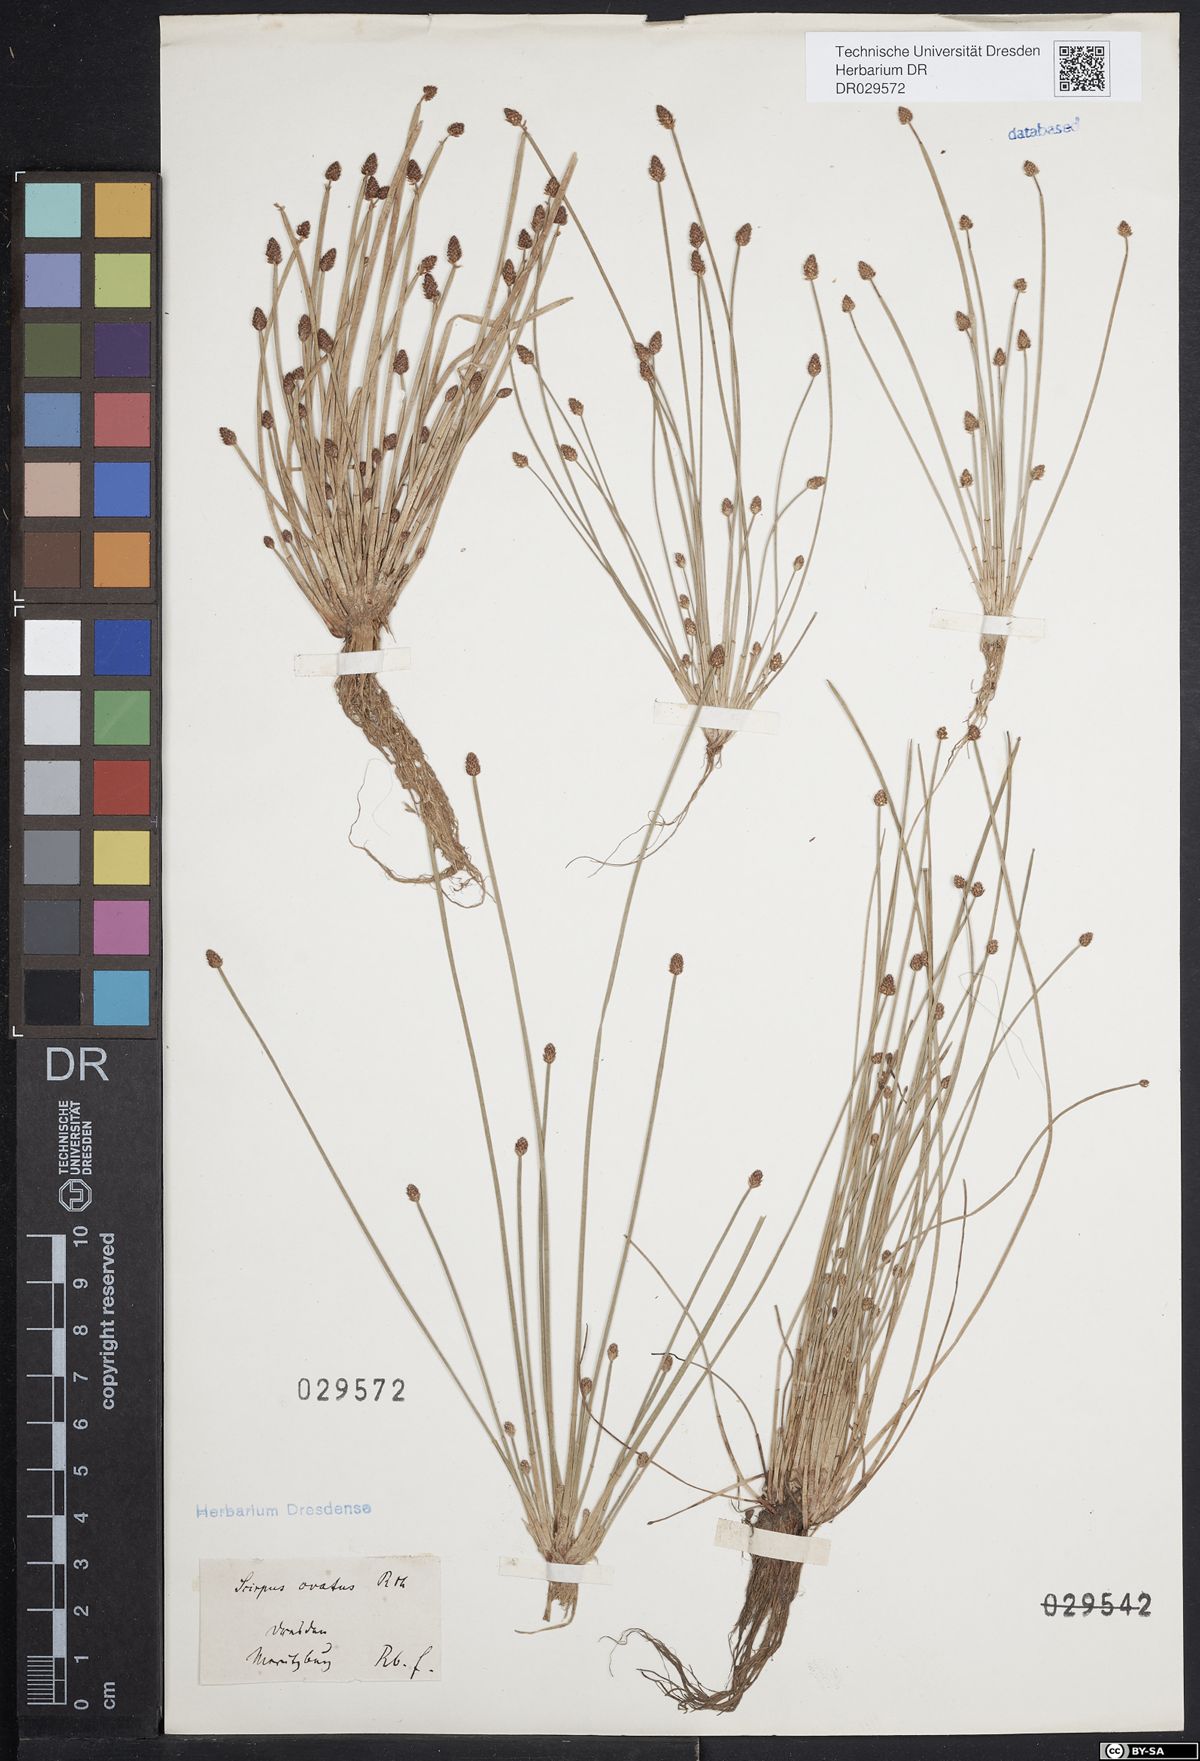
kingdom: Plantae
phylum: Tracheophyta
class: Liliopsida
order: Poales
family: Cyperaceae
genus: Eleocharis
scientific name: Eleocharis ovata
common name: Oval spike-rush
